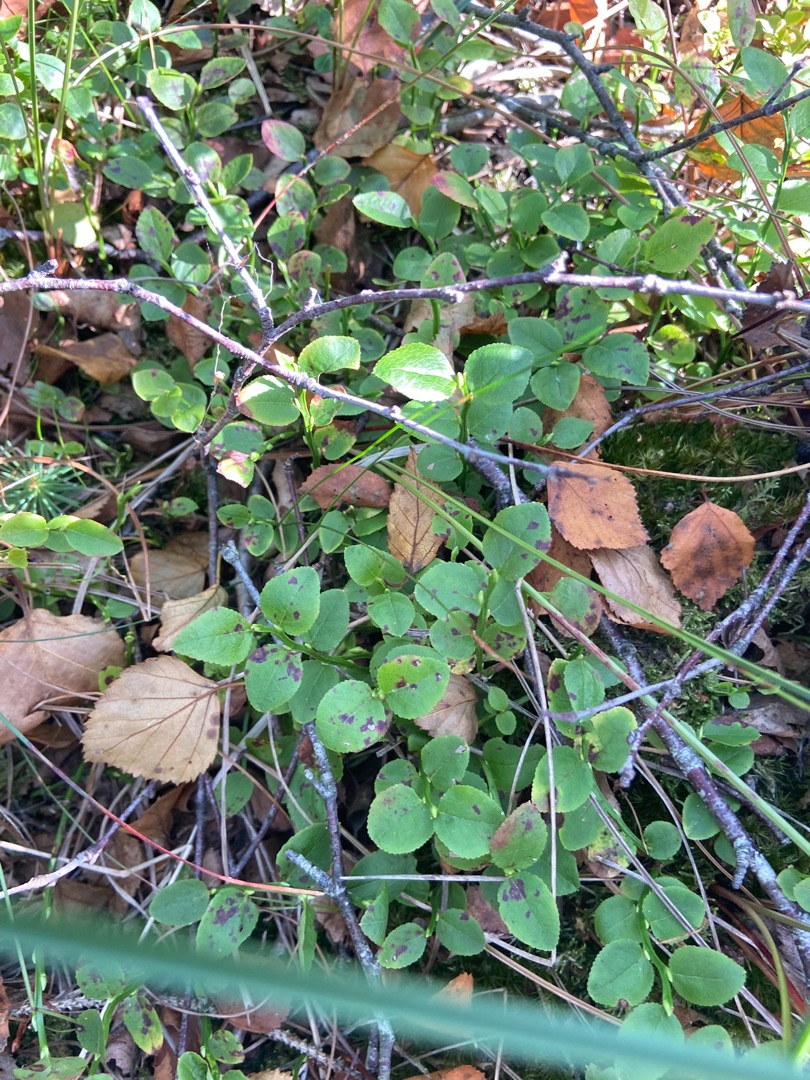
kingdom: Plantae
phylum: Tracheophyta
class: Magnoliopsida
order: Ericales
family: Ericaceae
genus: Vaccinium
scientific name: Vaccinium myrtillus
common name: Blåbær
